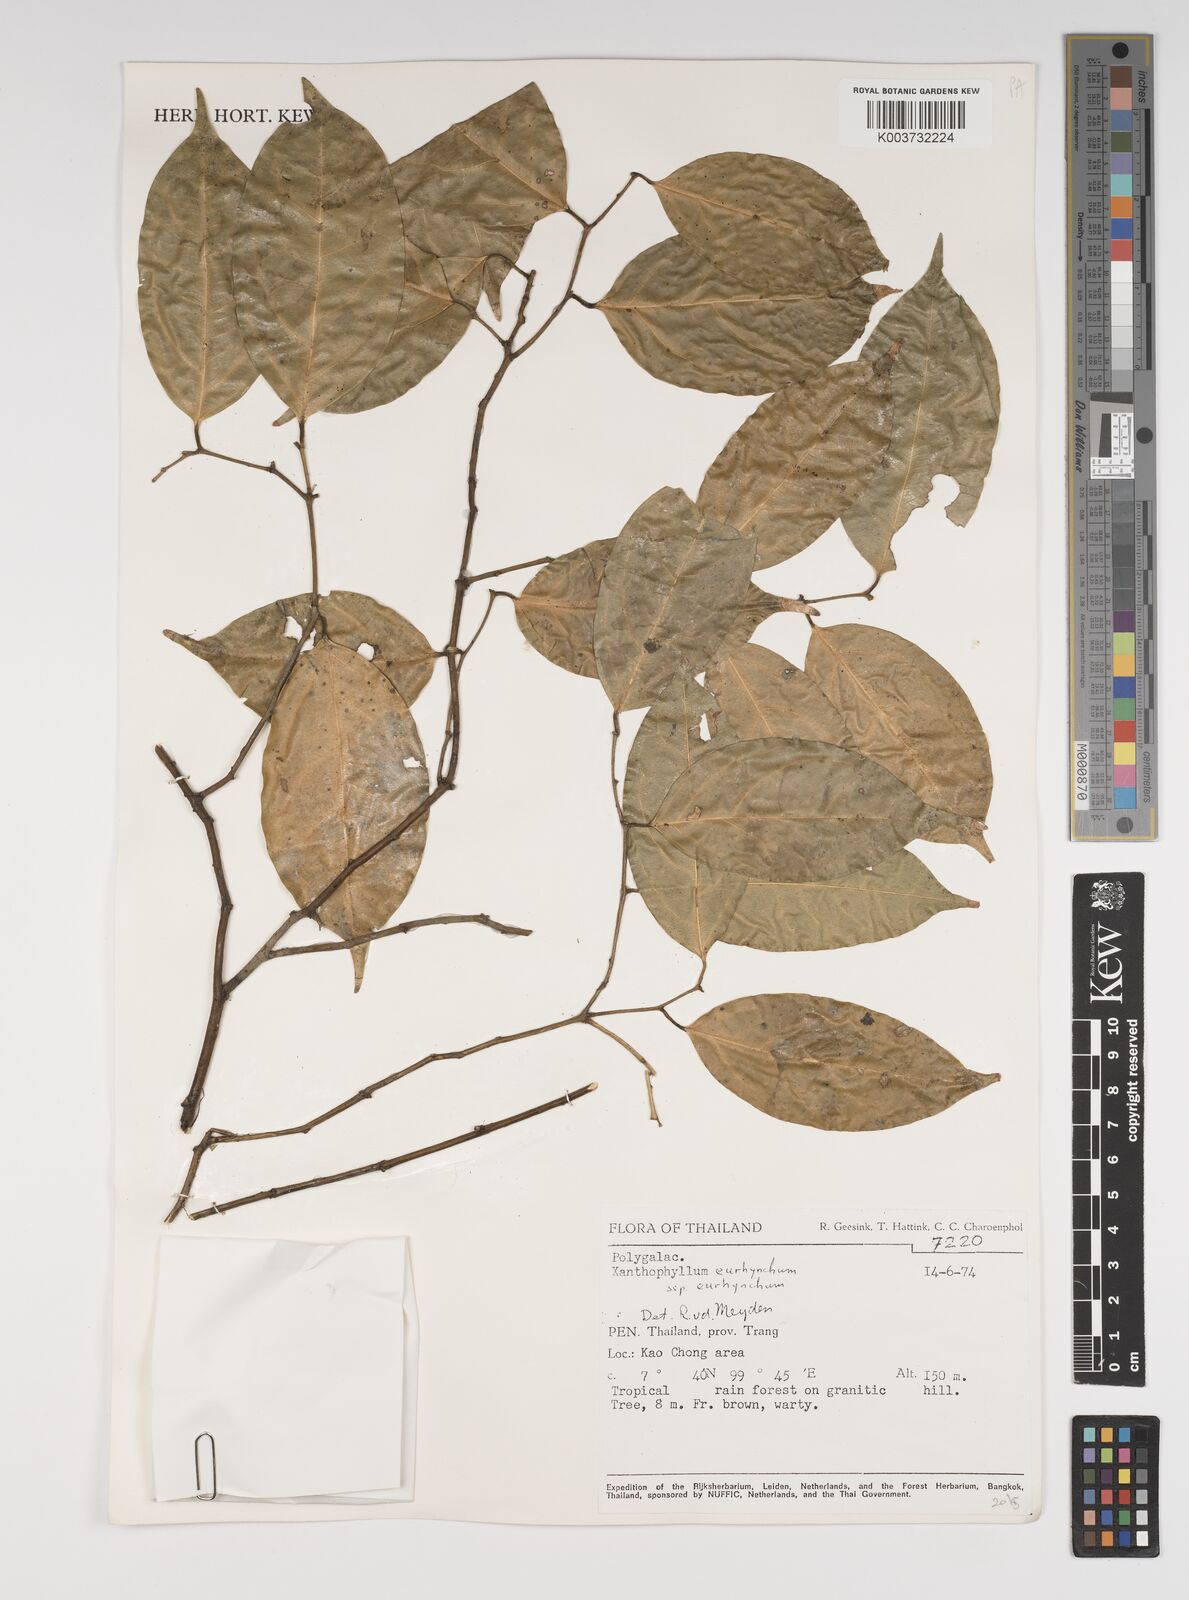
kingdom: Plantae
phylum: Tracheophyta
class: Magnoliopsida
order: Fabales
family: Polygalaceae
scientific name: Polygalaceae
